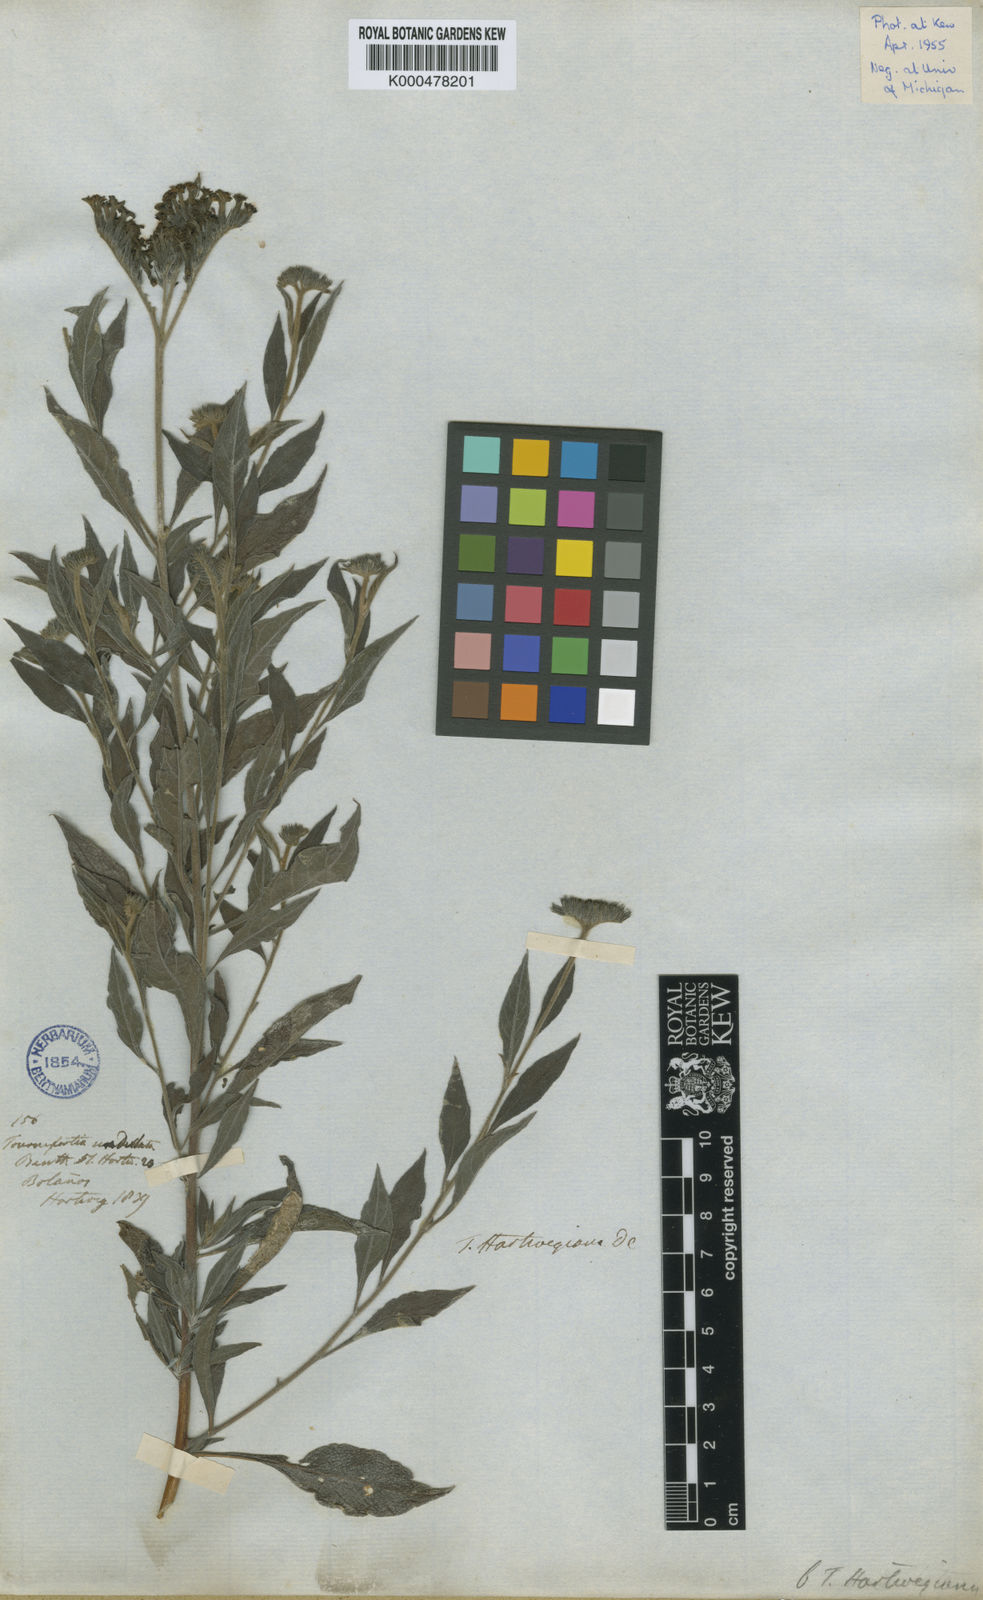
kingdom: Plantae
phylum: Tracheophyta
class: Magnoliopsida
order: Boraginales
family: Heliotropiaceae
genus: Tournefortia
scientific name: Tournefortia
